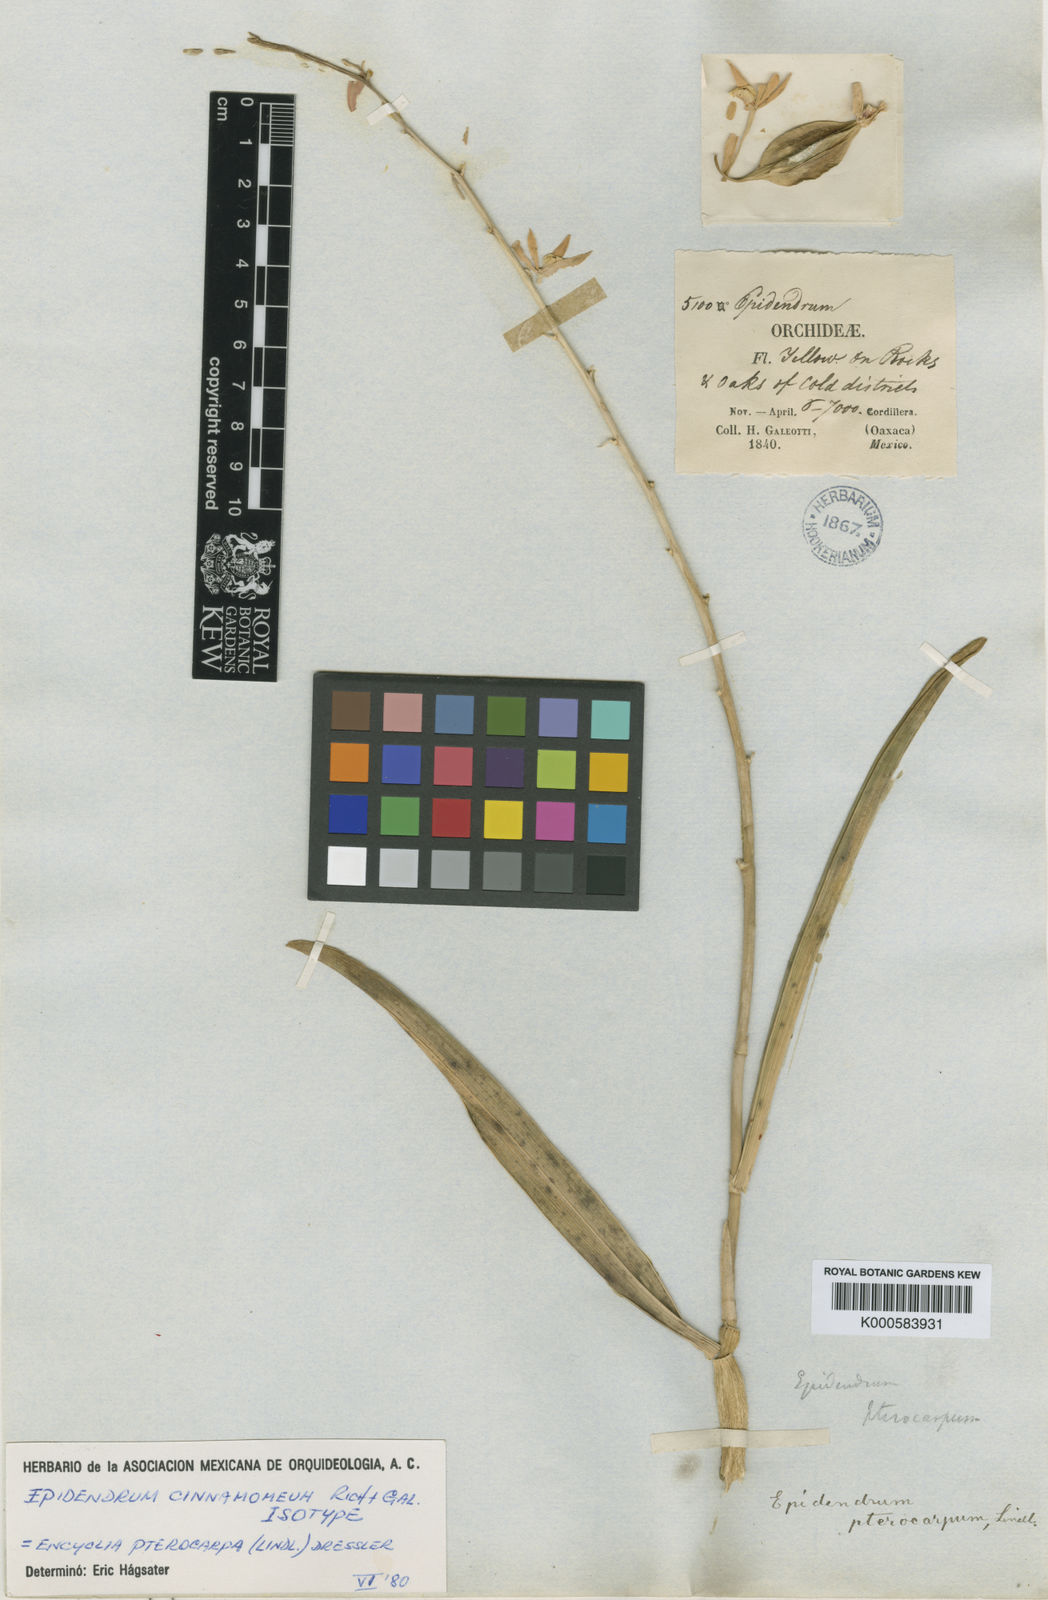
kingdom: Plantae
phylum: Tracheophyta
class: Liliopsida
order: Asparagales
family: Orchidaceae
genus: Prosthechea
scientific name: Prosthechea pterocarpa
